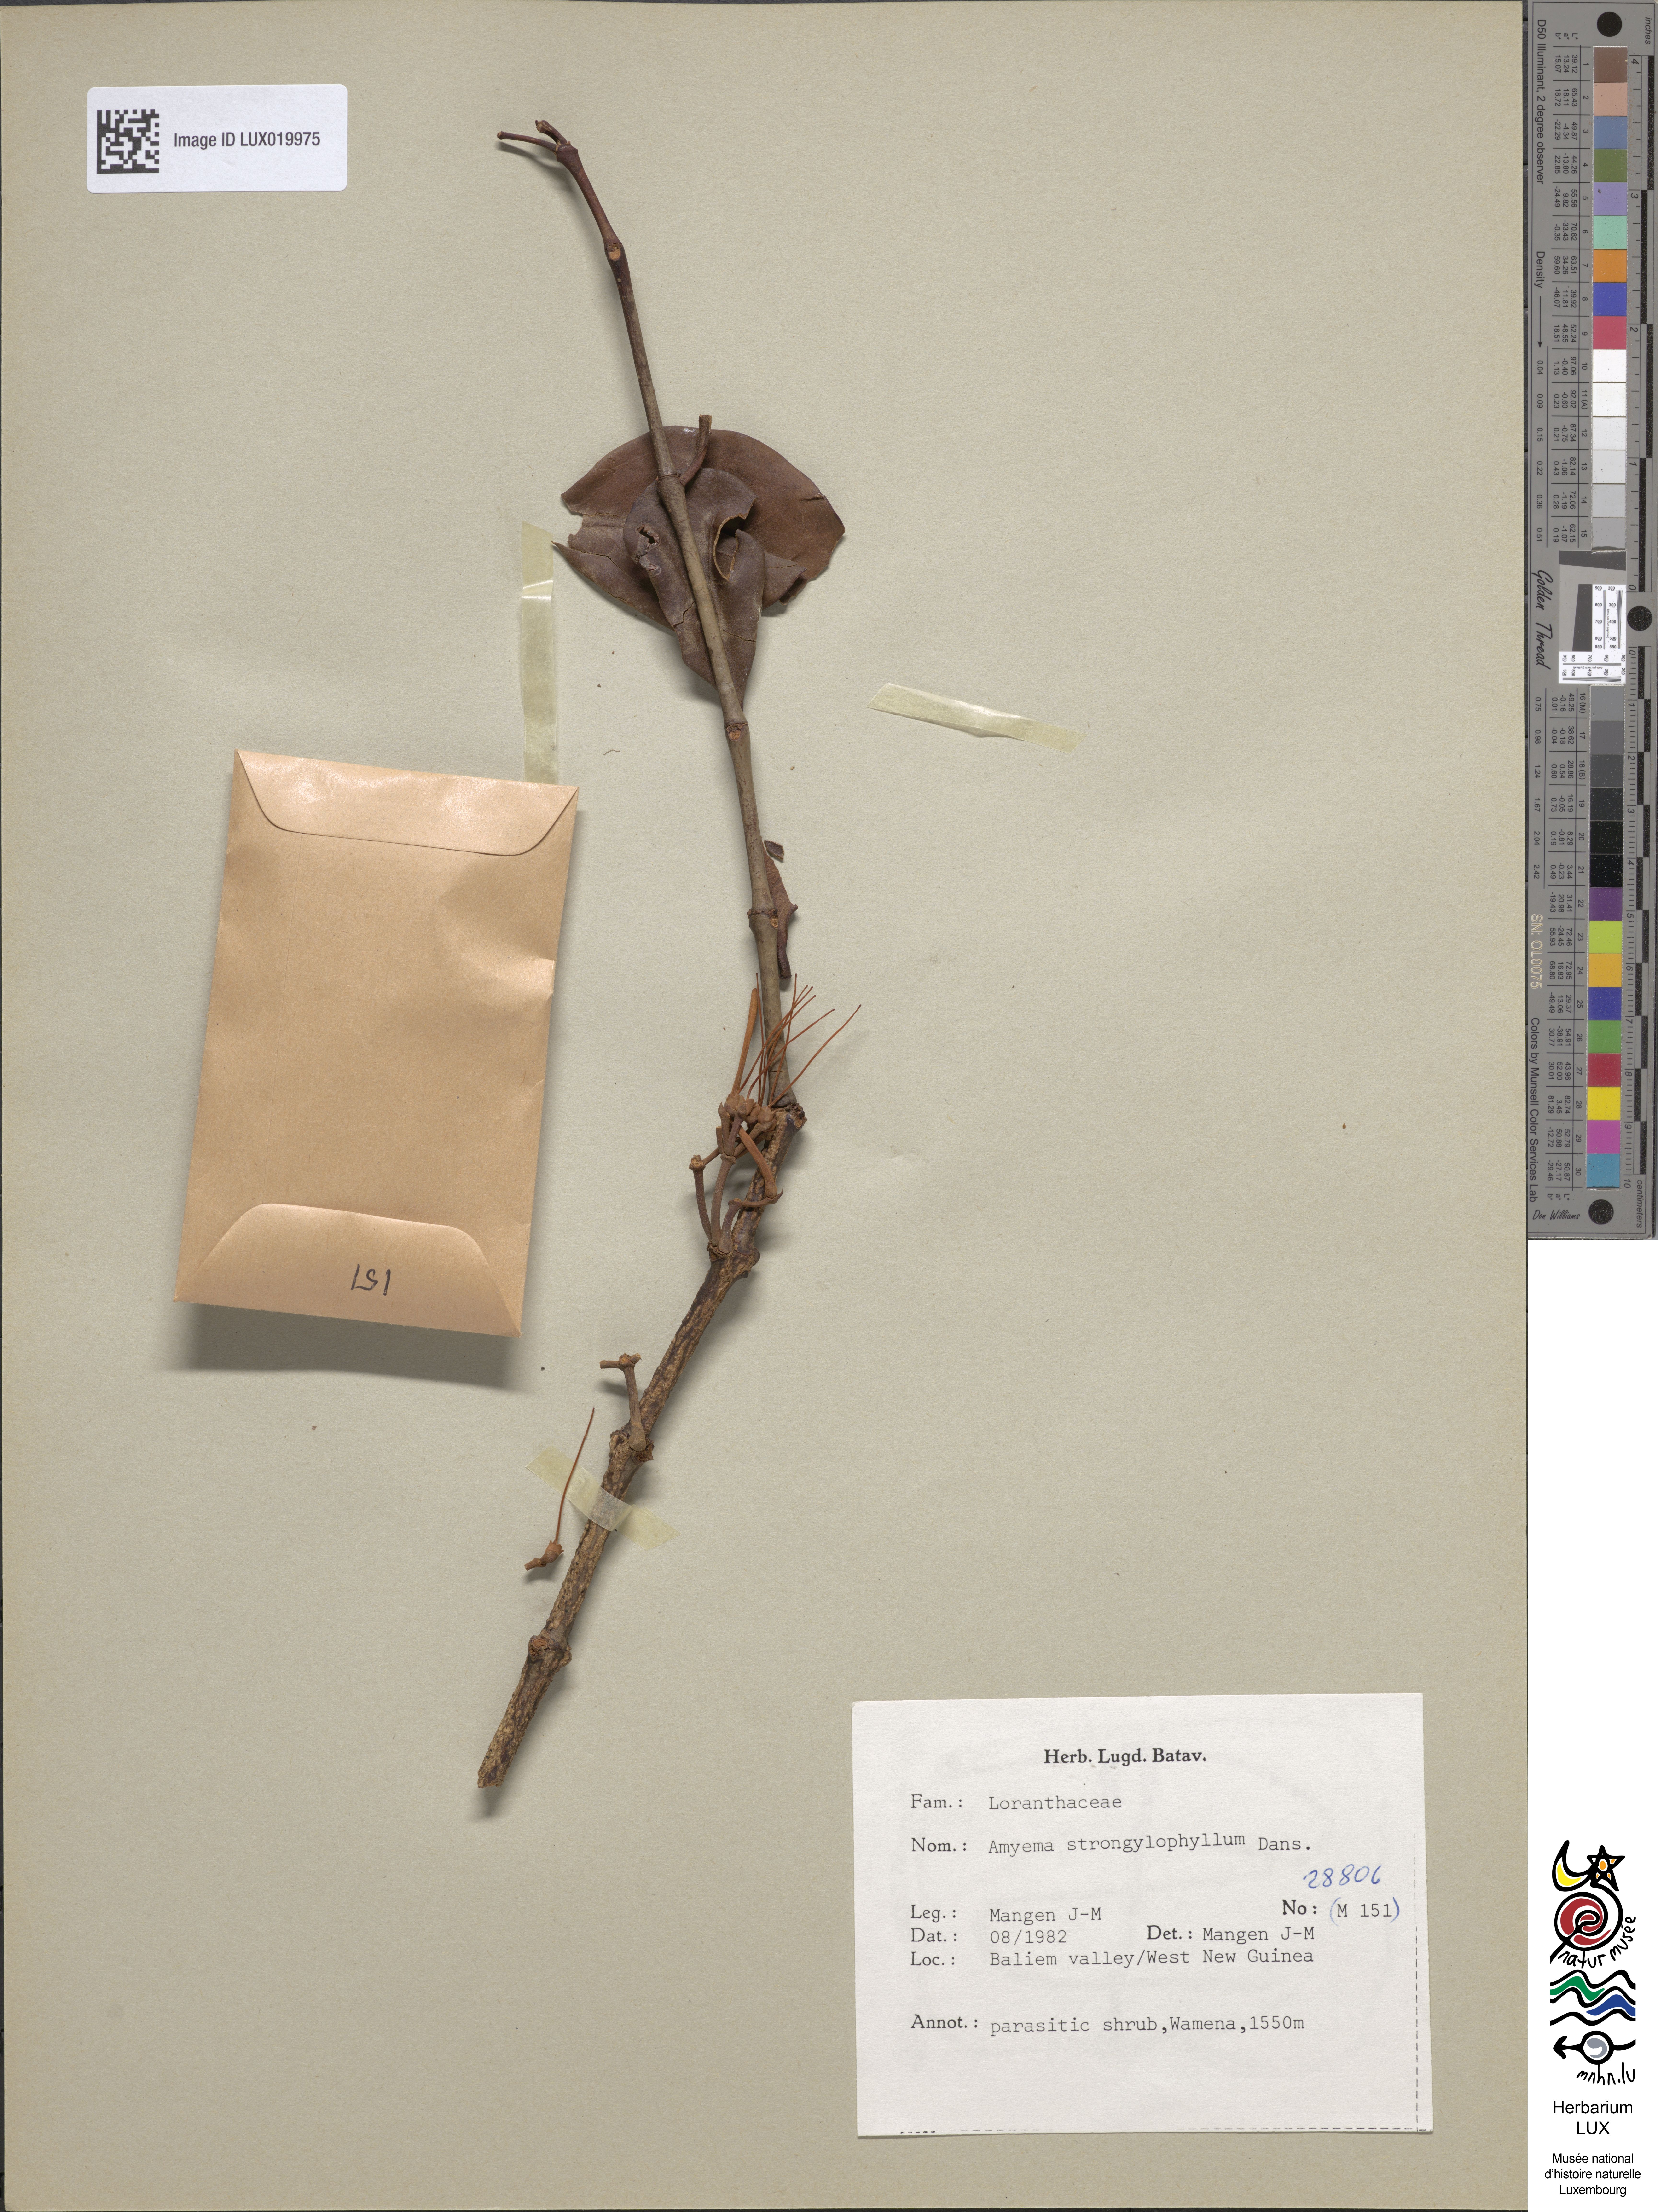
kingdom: Plantae
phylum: Tracheophyta
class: Magnoliopsida
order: Santalales
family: Loranthaceae
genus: Amyema
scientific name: Amyema strongylophylla
